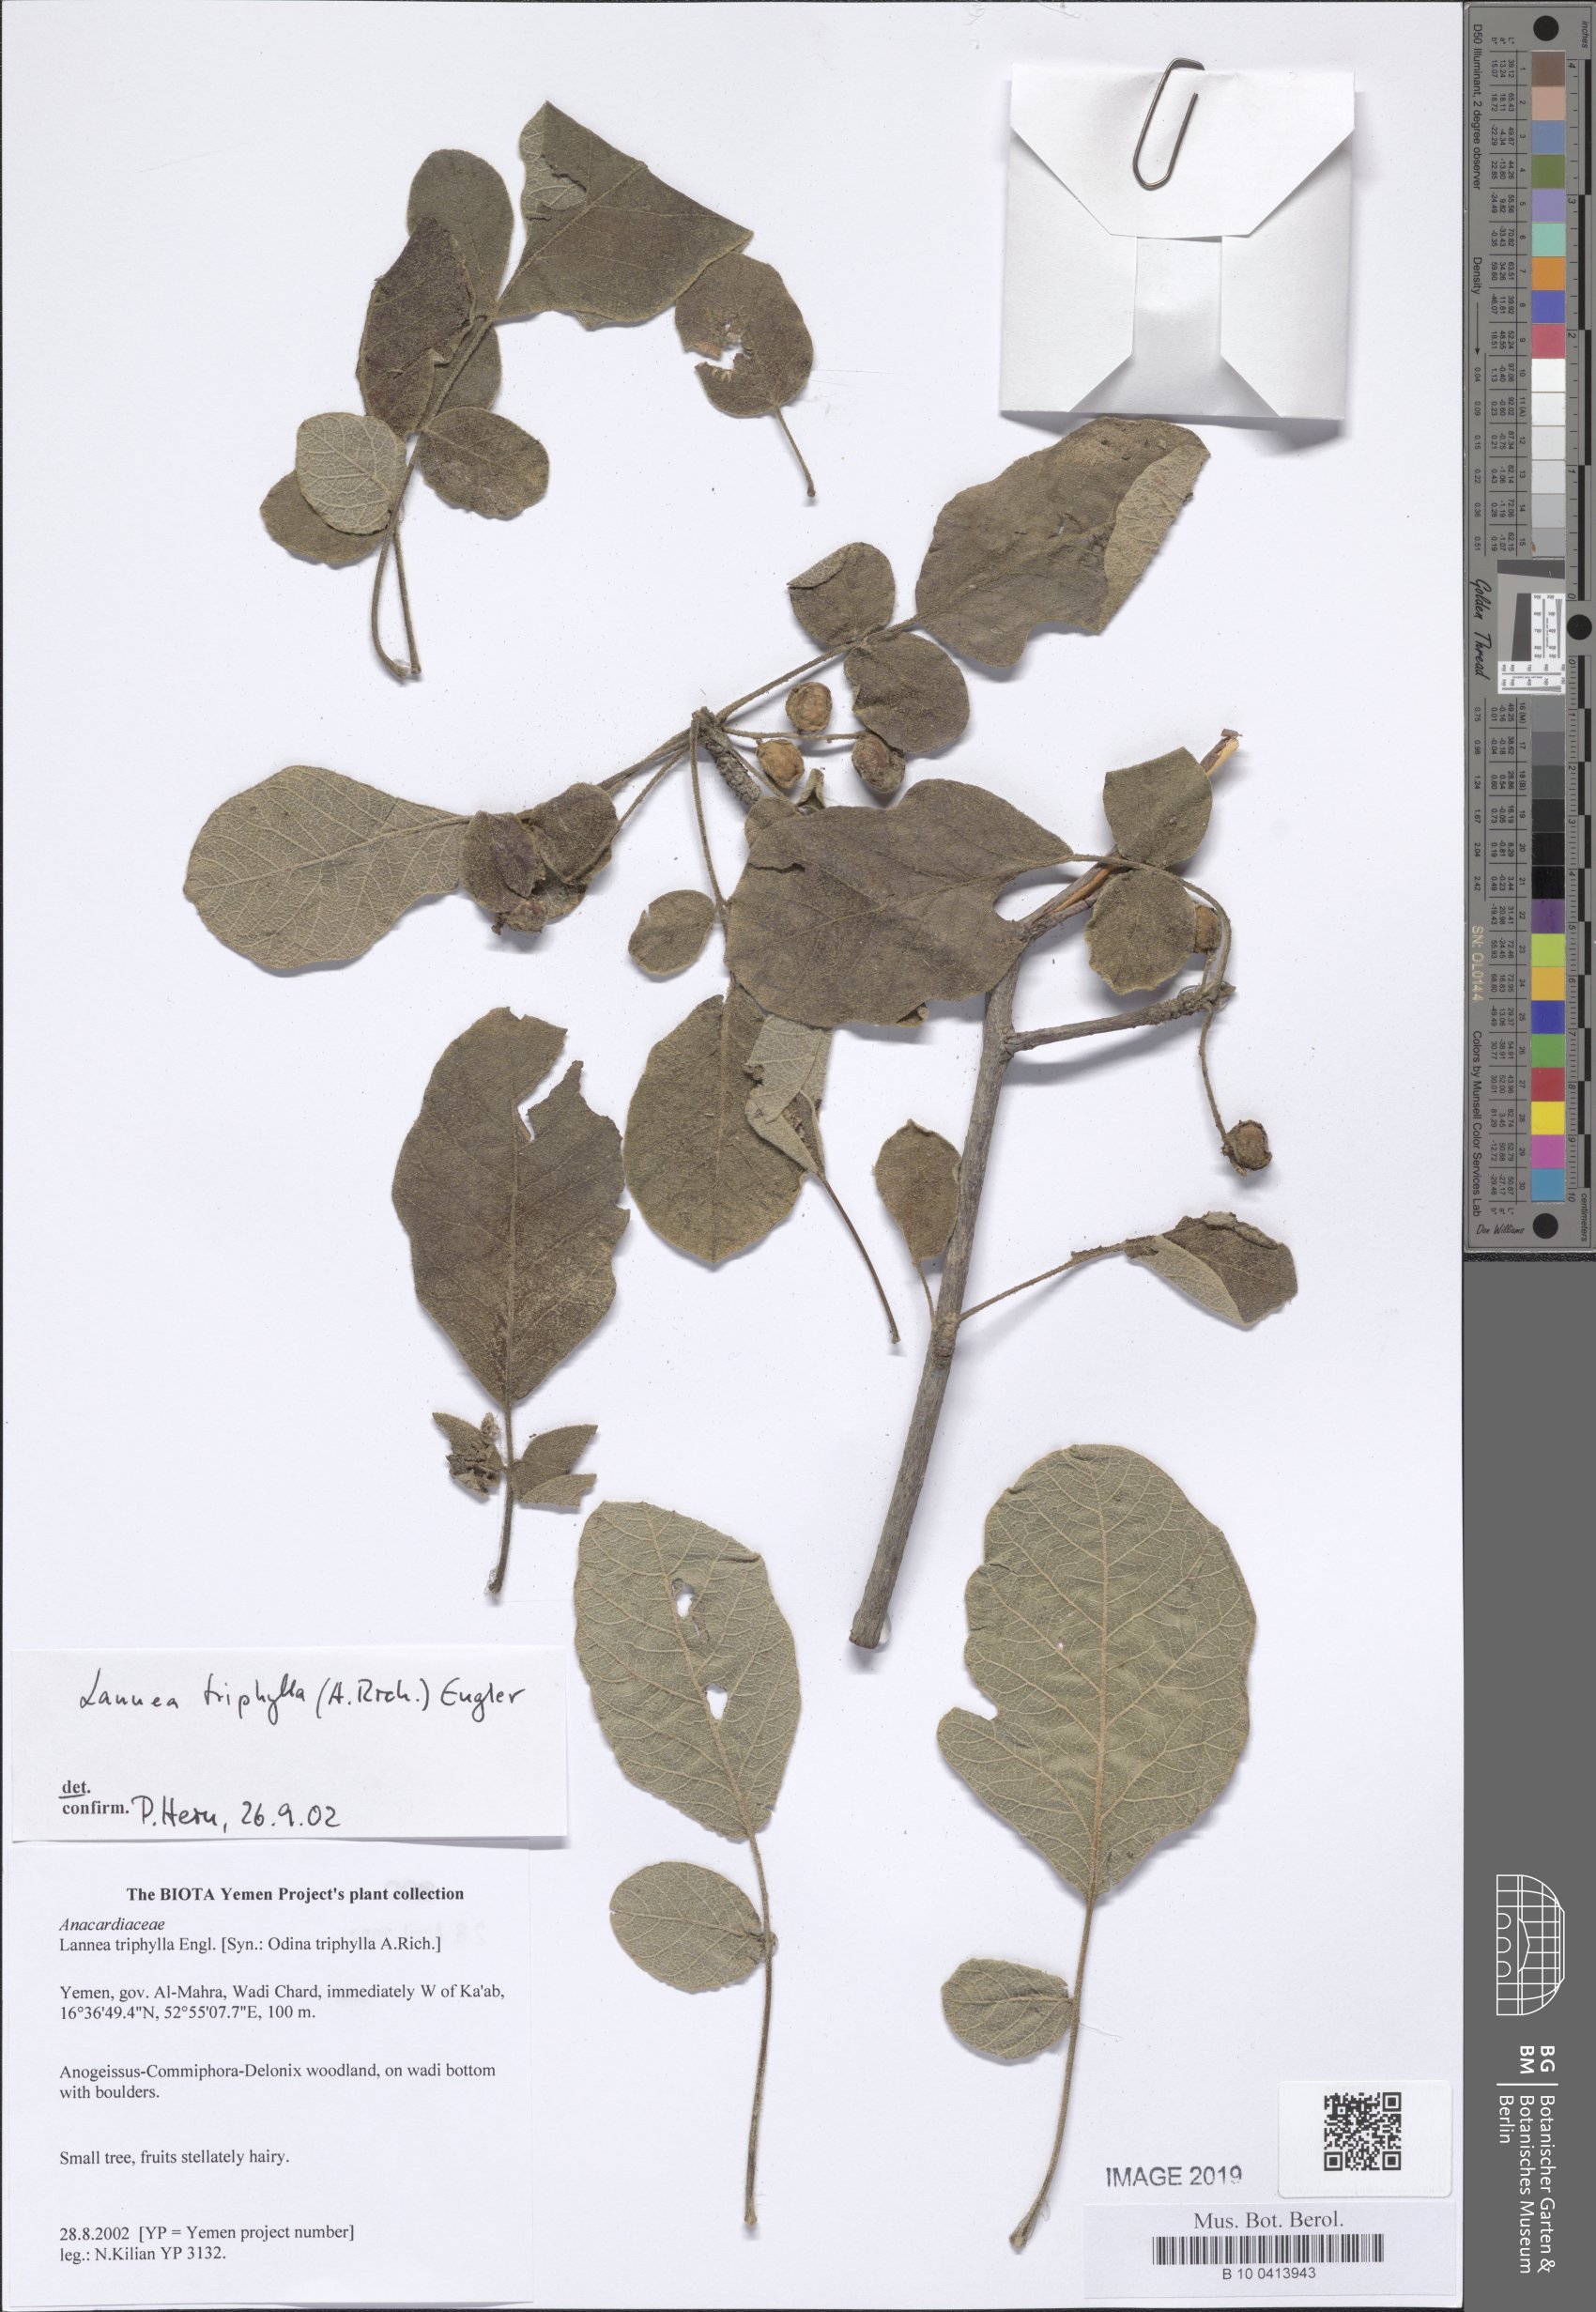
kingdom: Plantae
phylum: Tracheophyta
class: Magnoliopsida
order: Sapindales
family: Anacardiaceae
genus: Lannea
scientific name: Lannea triphylla
